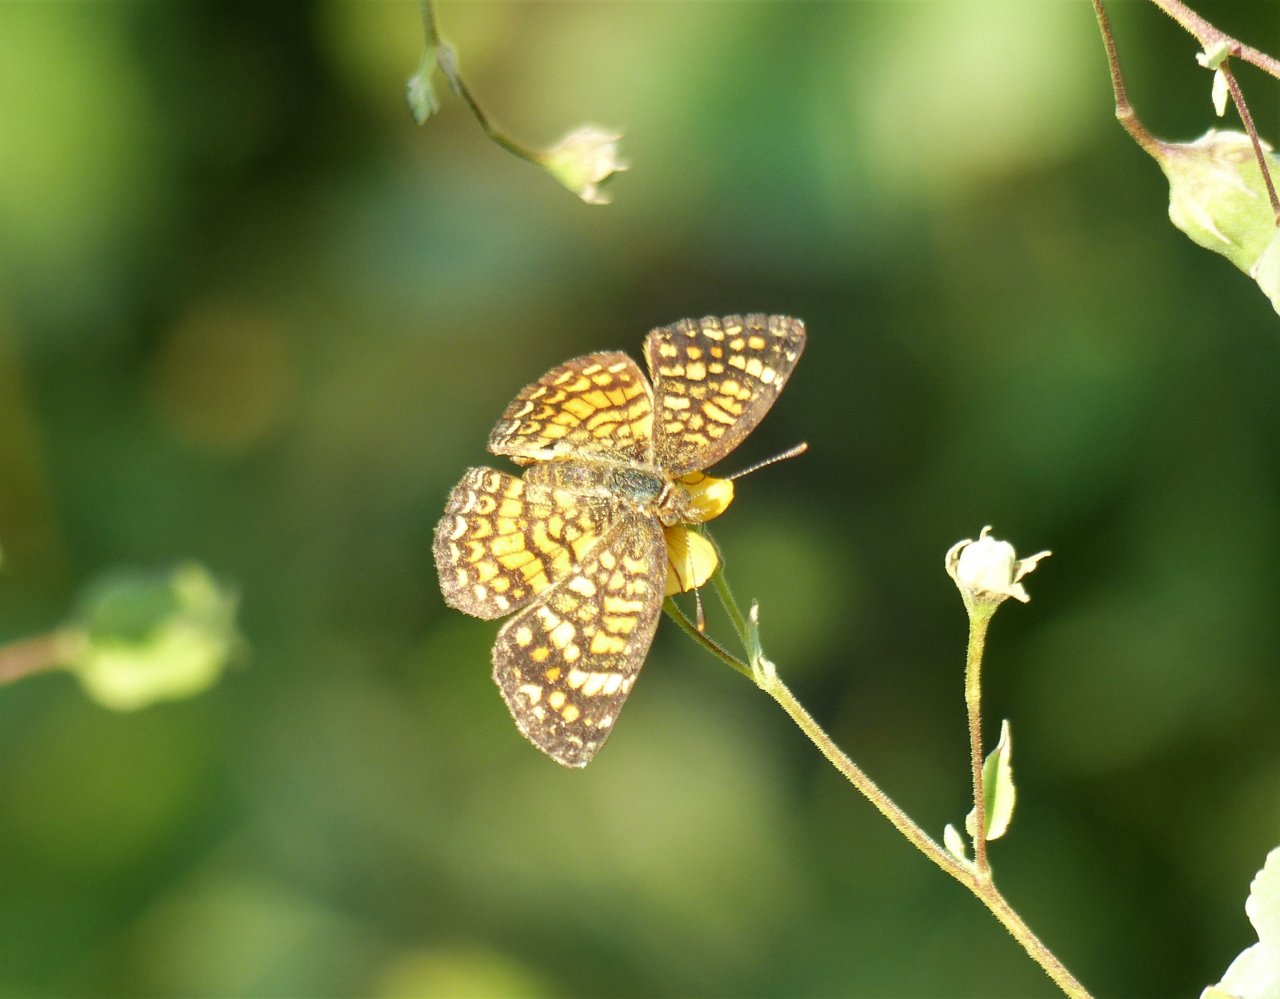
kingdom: Animalia
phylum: Arthropoda
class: Insecta
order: Lepidoptera
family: Nymphalidae
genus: Phyciodes
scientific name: Phyciodes vesta
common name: Vesta Crescent
